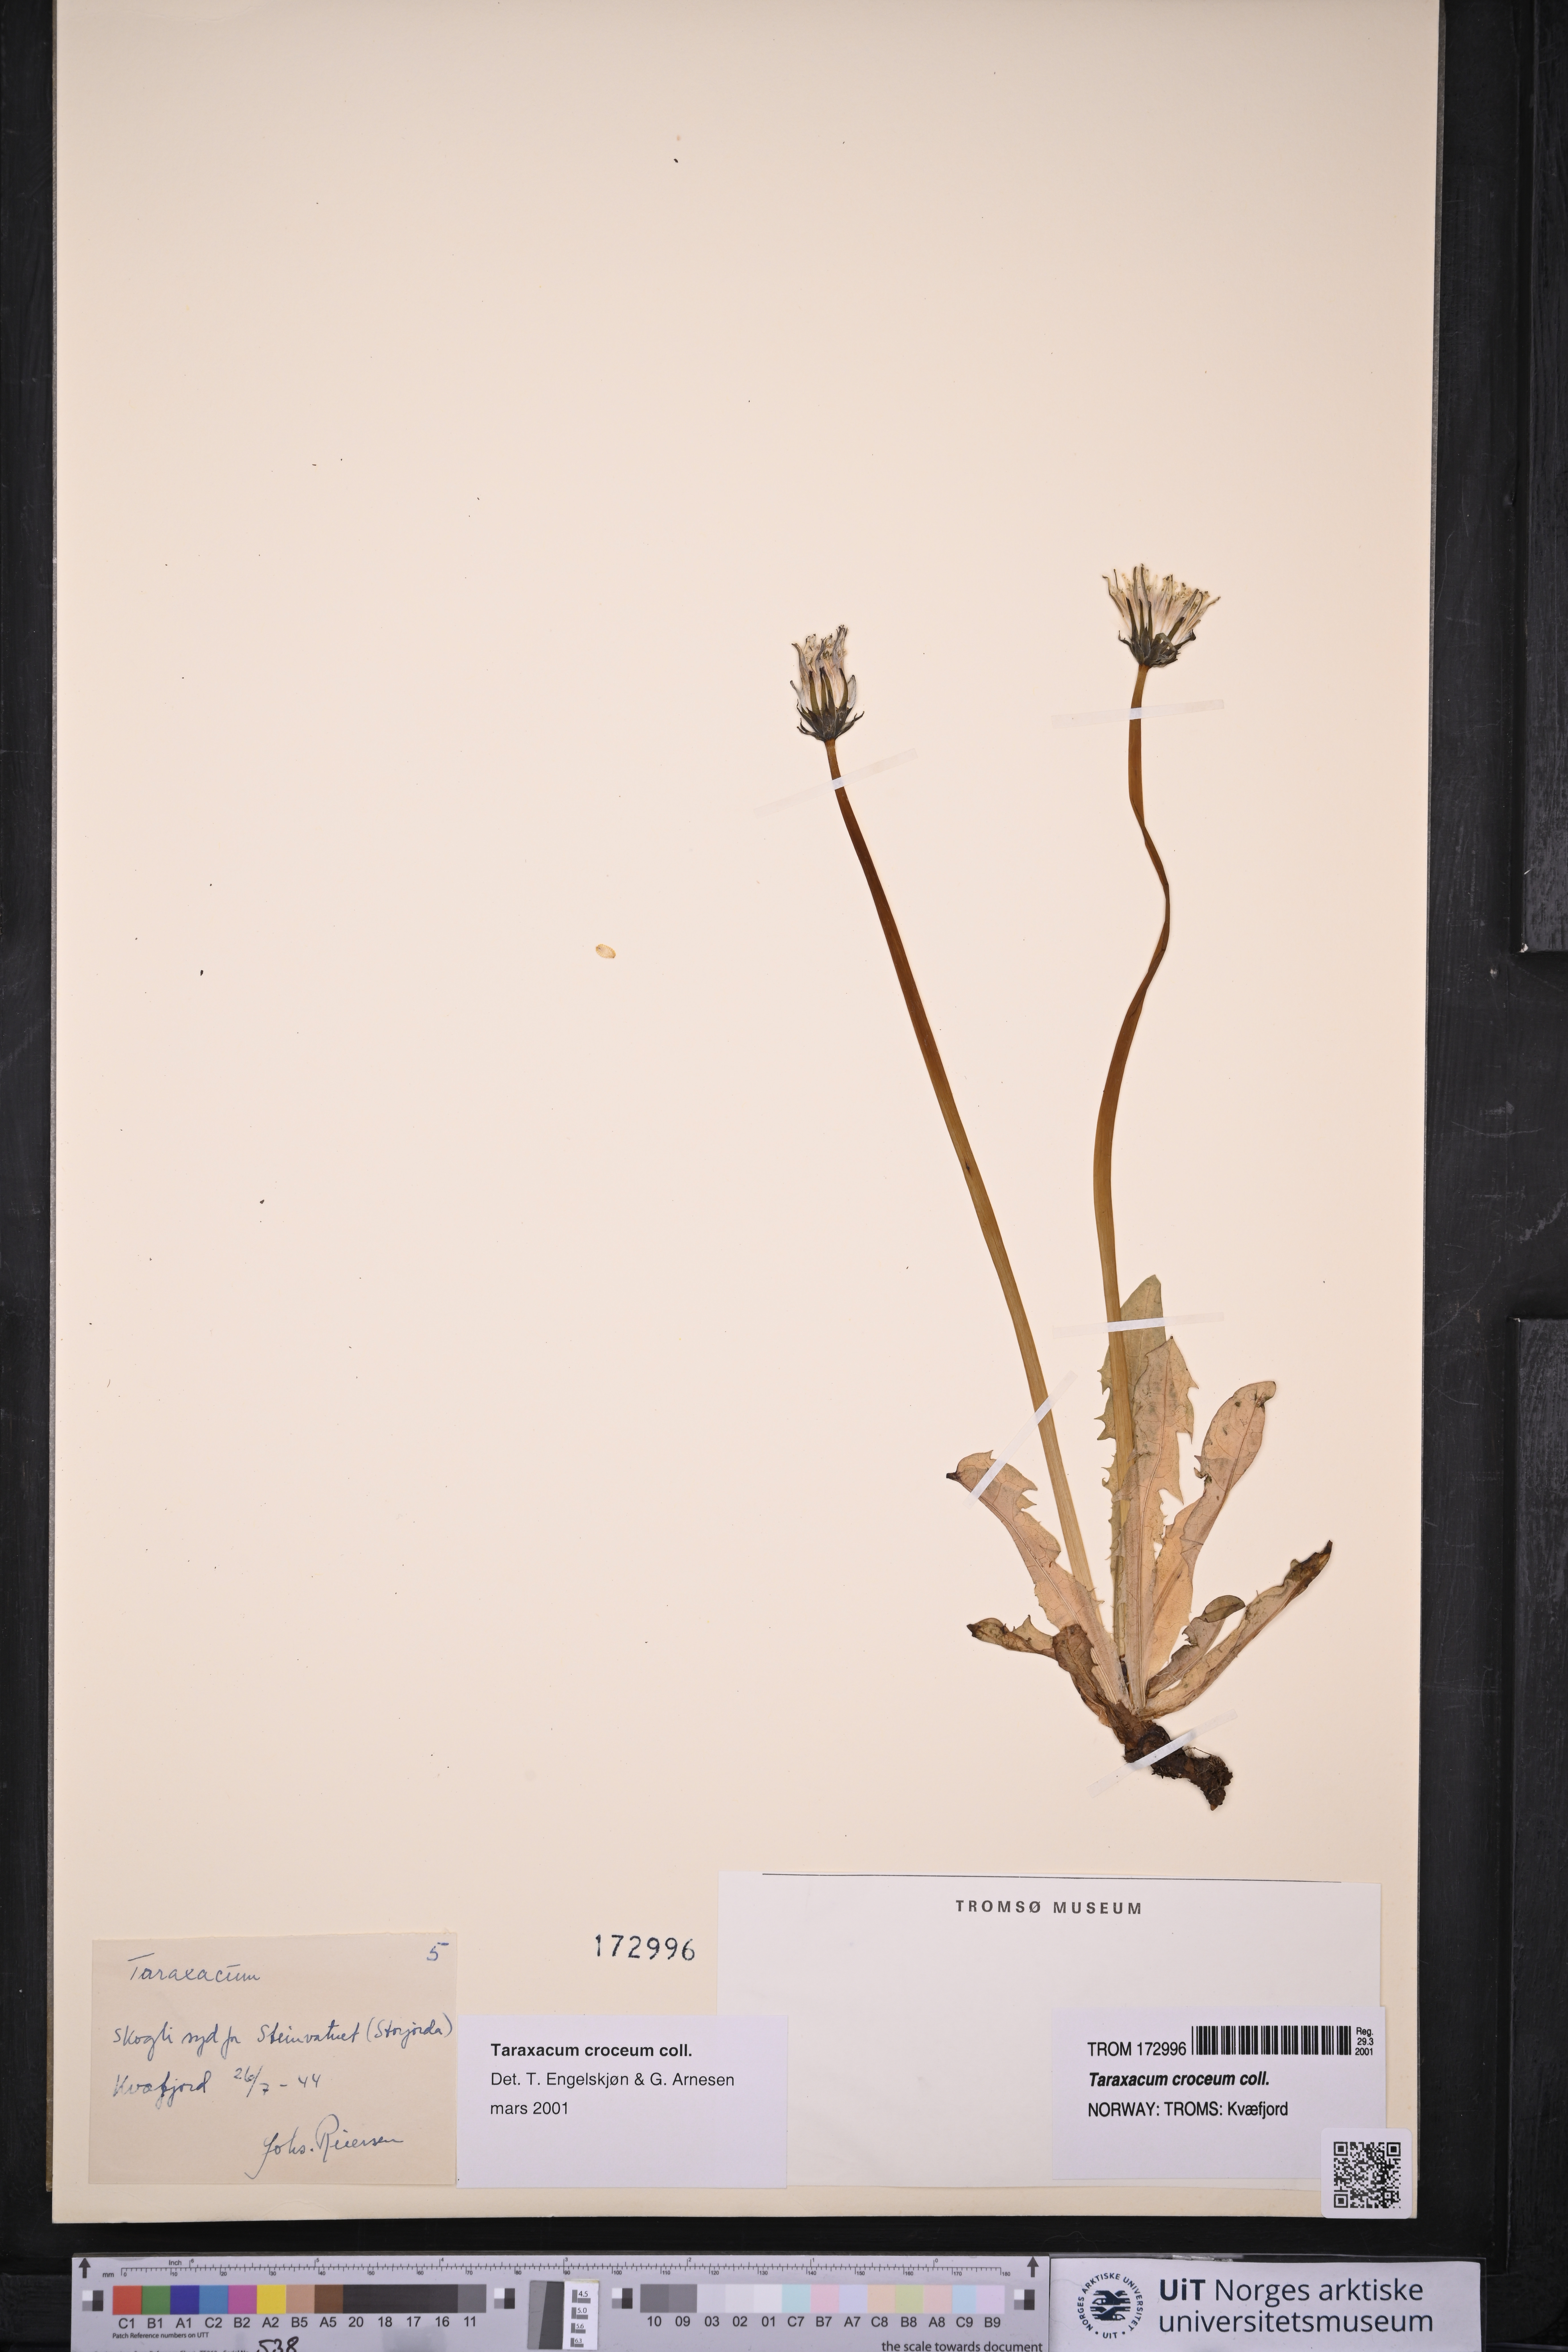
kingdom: Plantae
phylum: Tracheophyta
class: Magnoliopsida
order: Asterales
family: Asteraceae
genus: Taraxacum
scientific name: Taraxacum croceum
